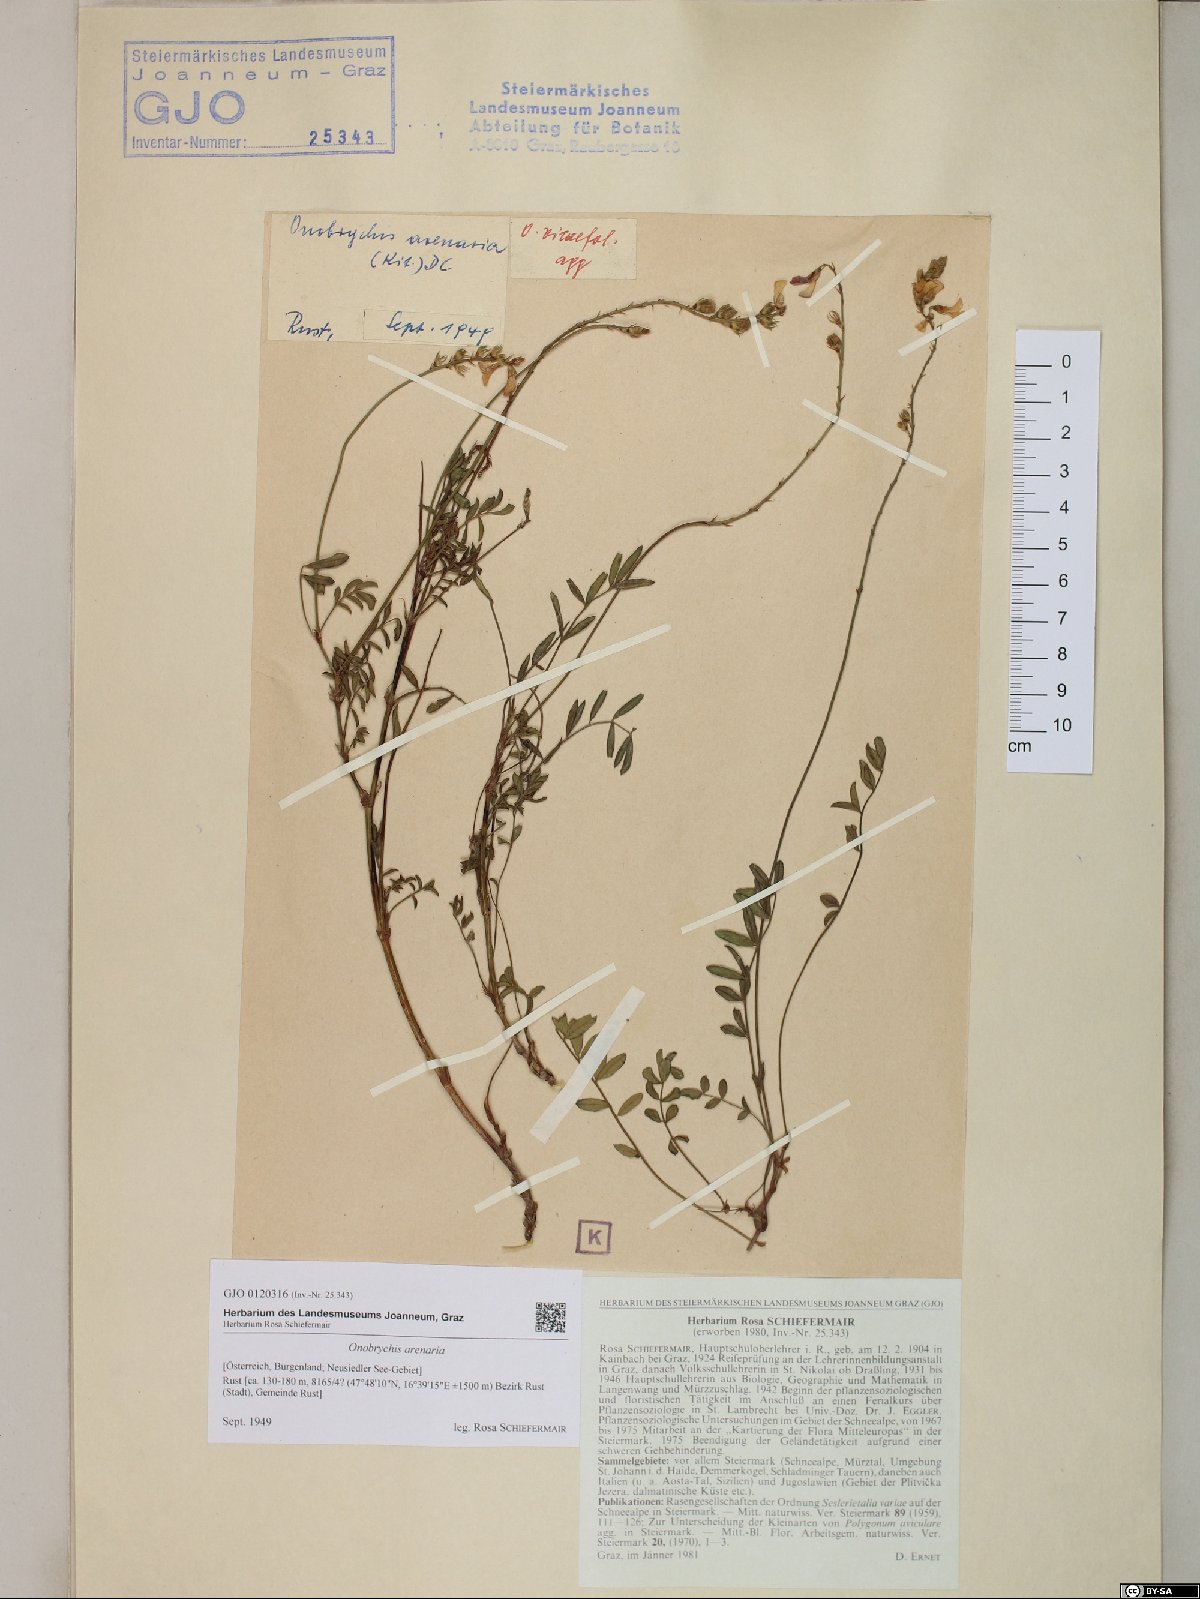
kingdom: Plantae
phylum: Tracheophyta
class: Magnoliopsida
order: Fabales
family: Fabaceae
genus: Onobrychis
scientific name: Onobrychis arenaria
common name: Sand esparcet
